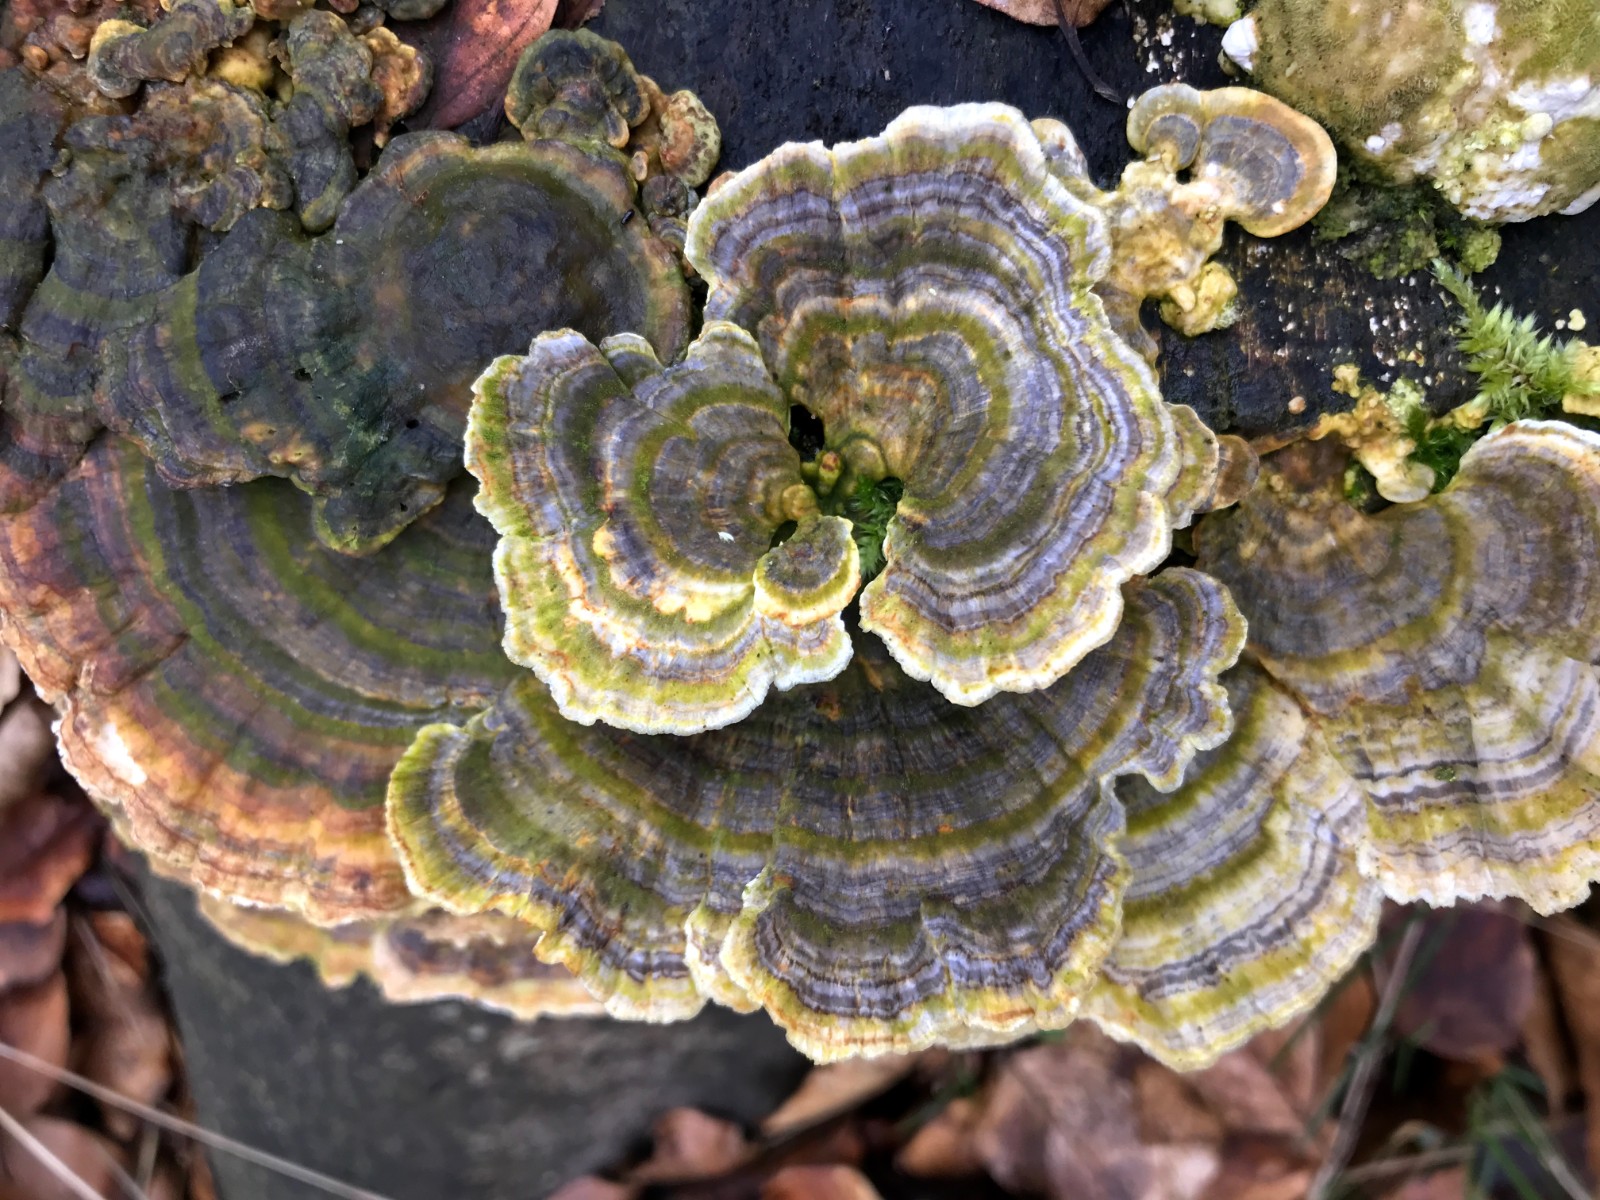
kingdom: Fungi
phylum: Basidiomycota
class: Agaricomycetes
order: Polyporales
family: Polyporaceae
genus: Trametes
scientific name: Trametes versicolor
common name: broget læderporesvamp
